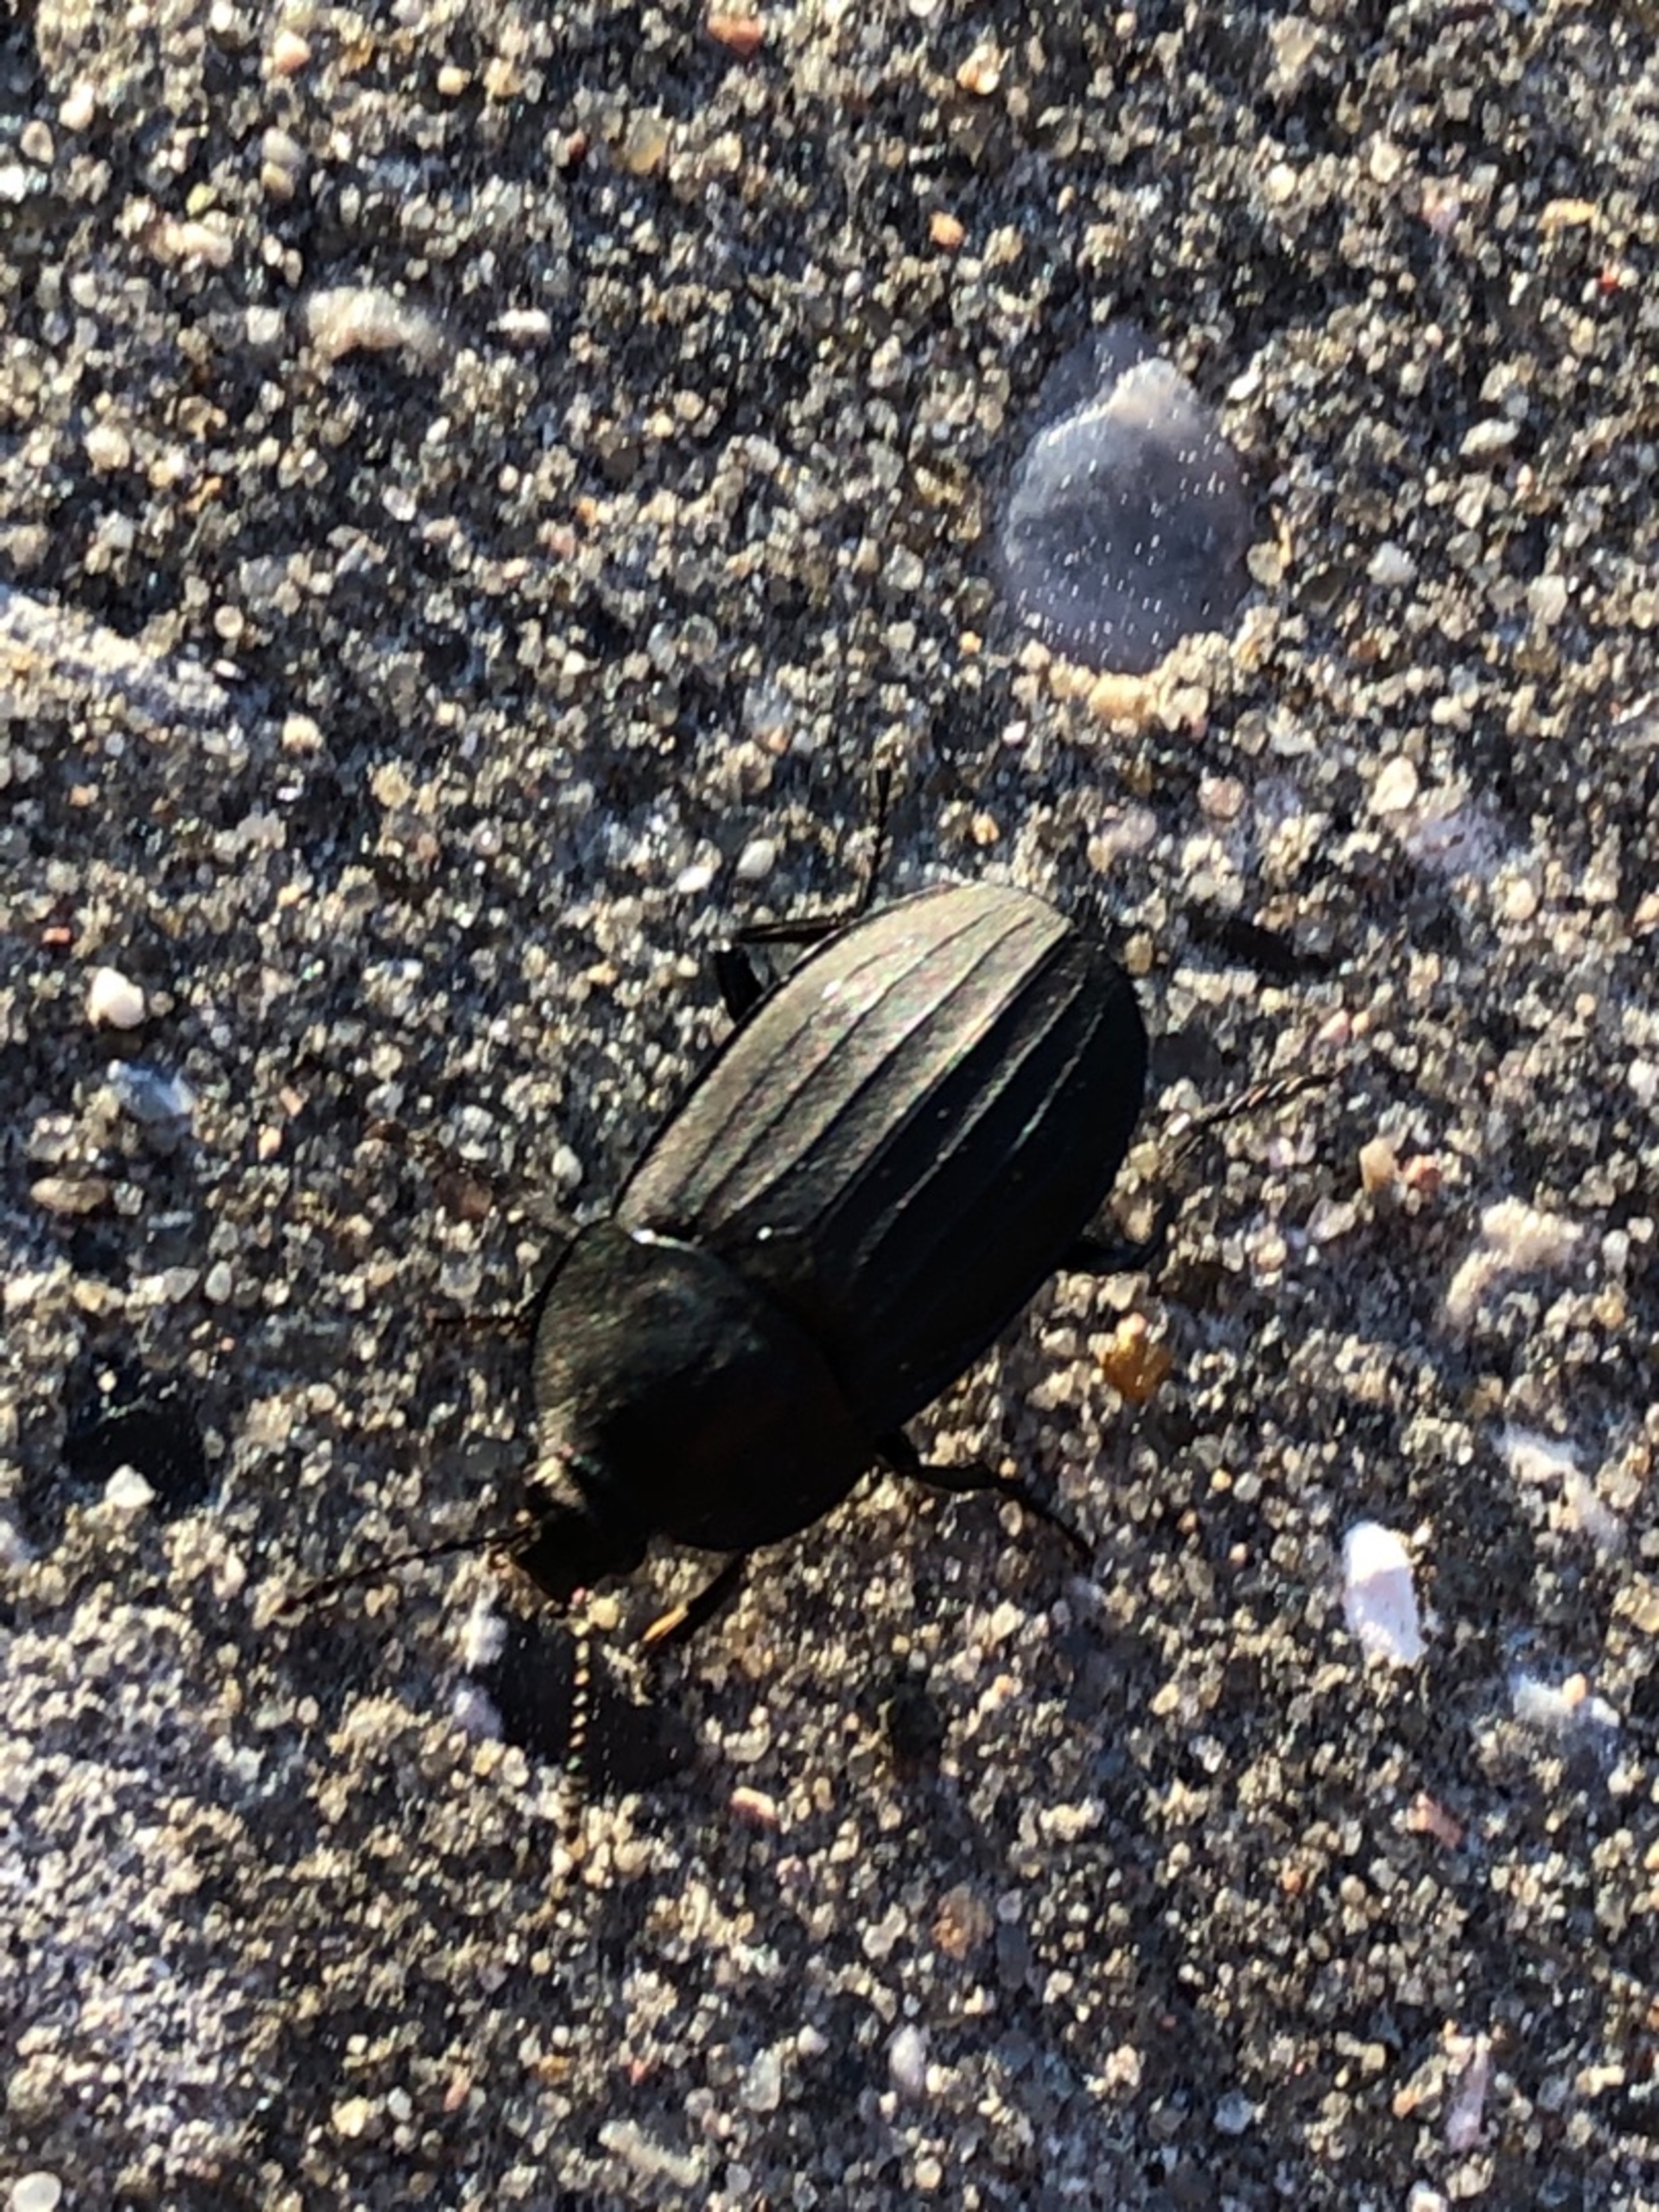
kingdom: Animalia
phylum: Arthropoda
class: Insecta
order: Coleoptera
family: Staphylinidae
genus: Silpha
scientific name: Silpha atrata
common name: Snegleådselbille
